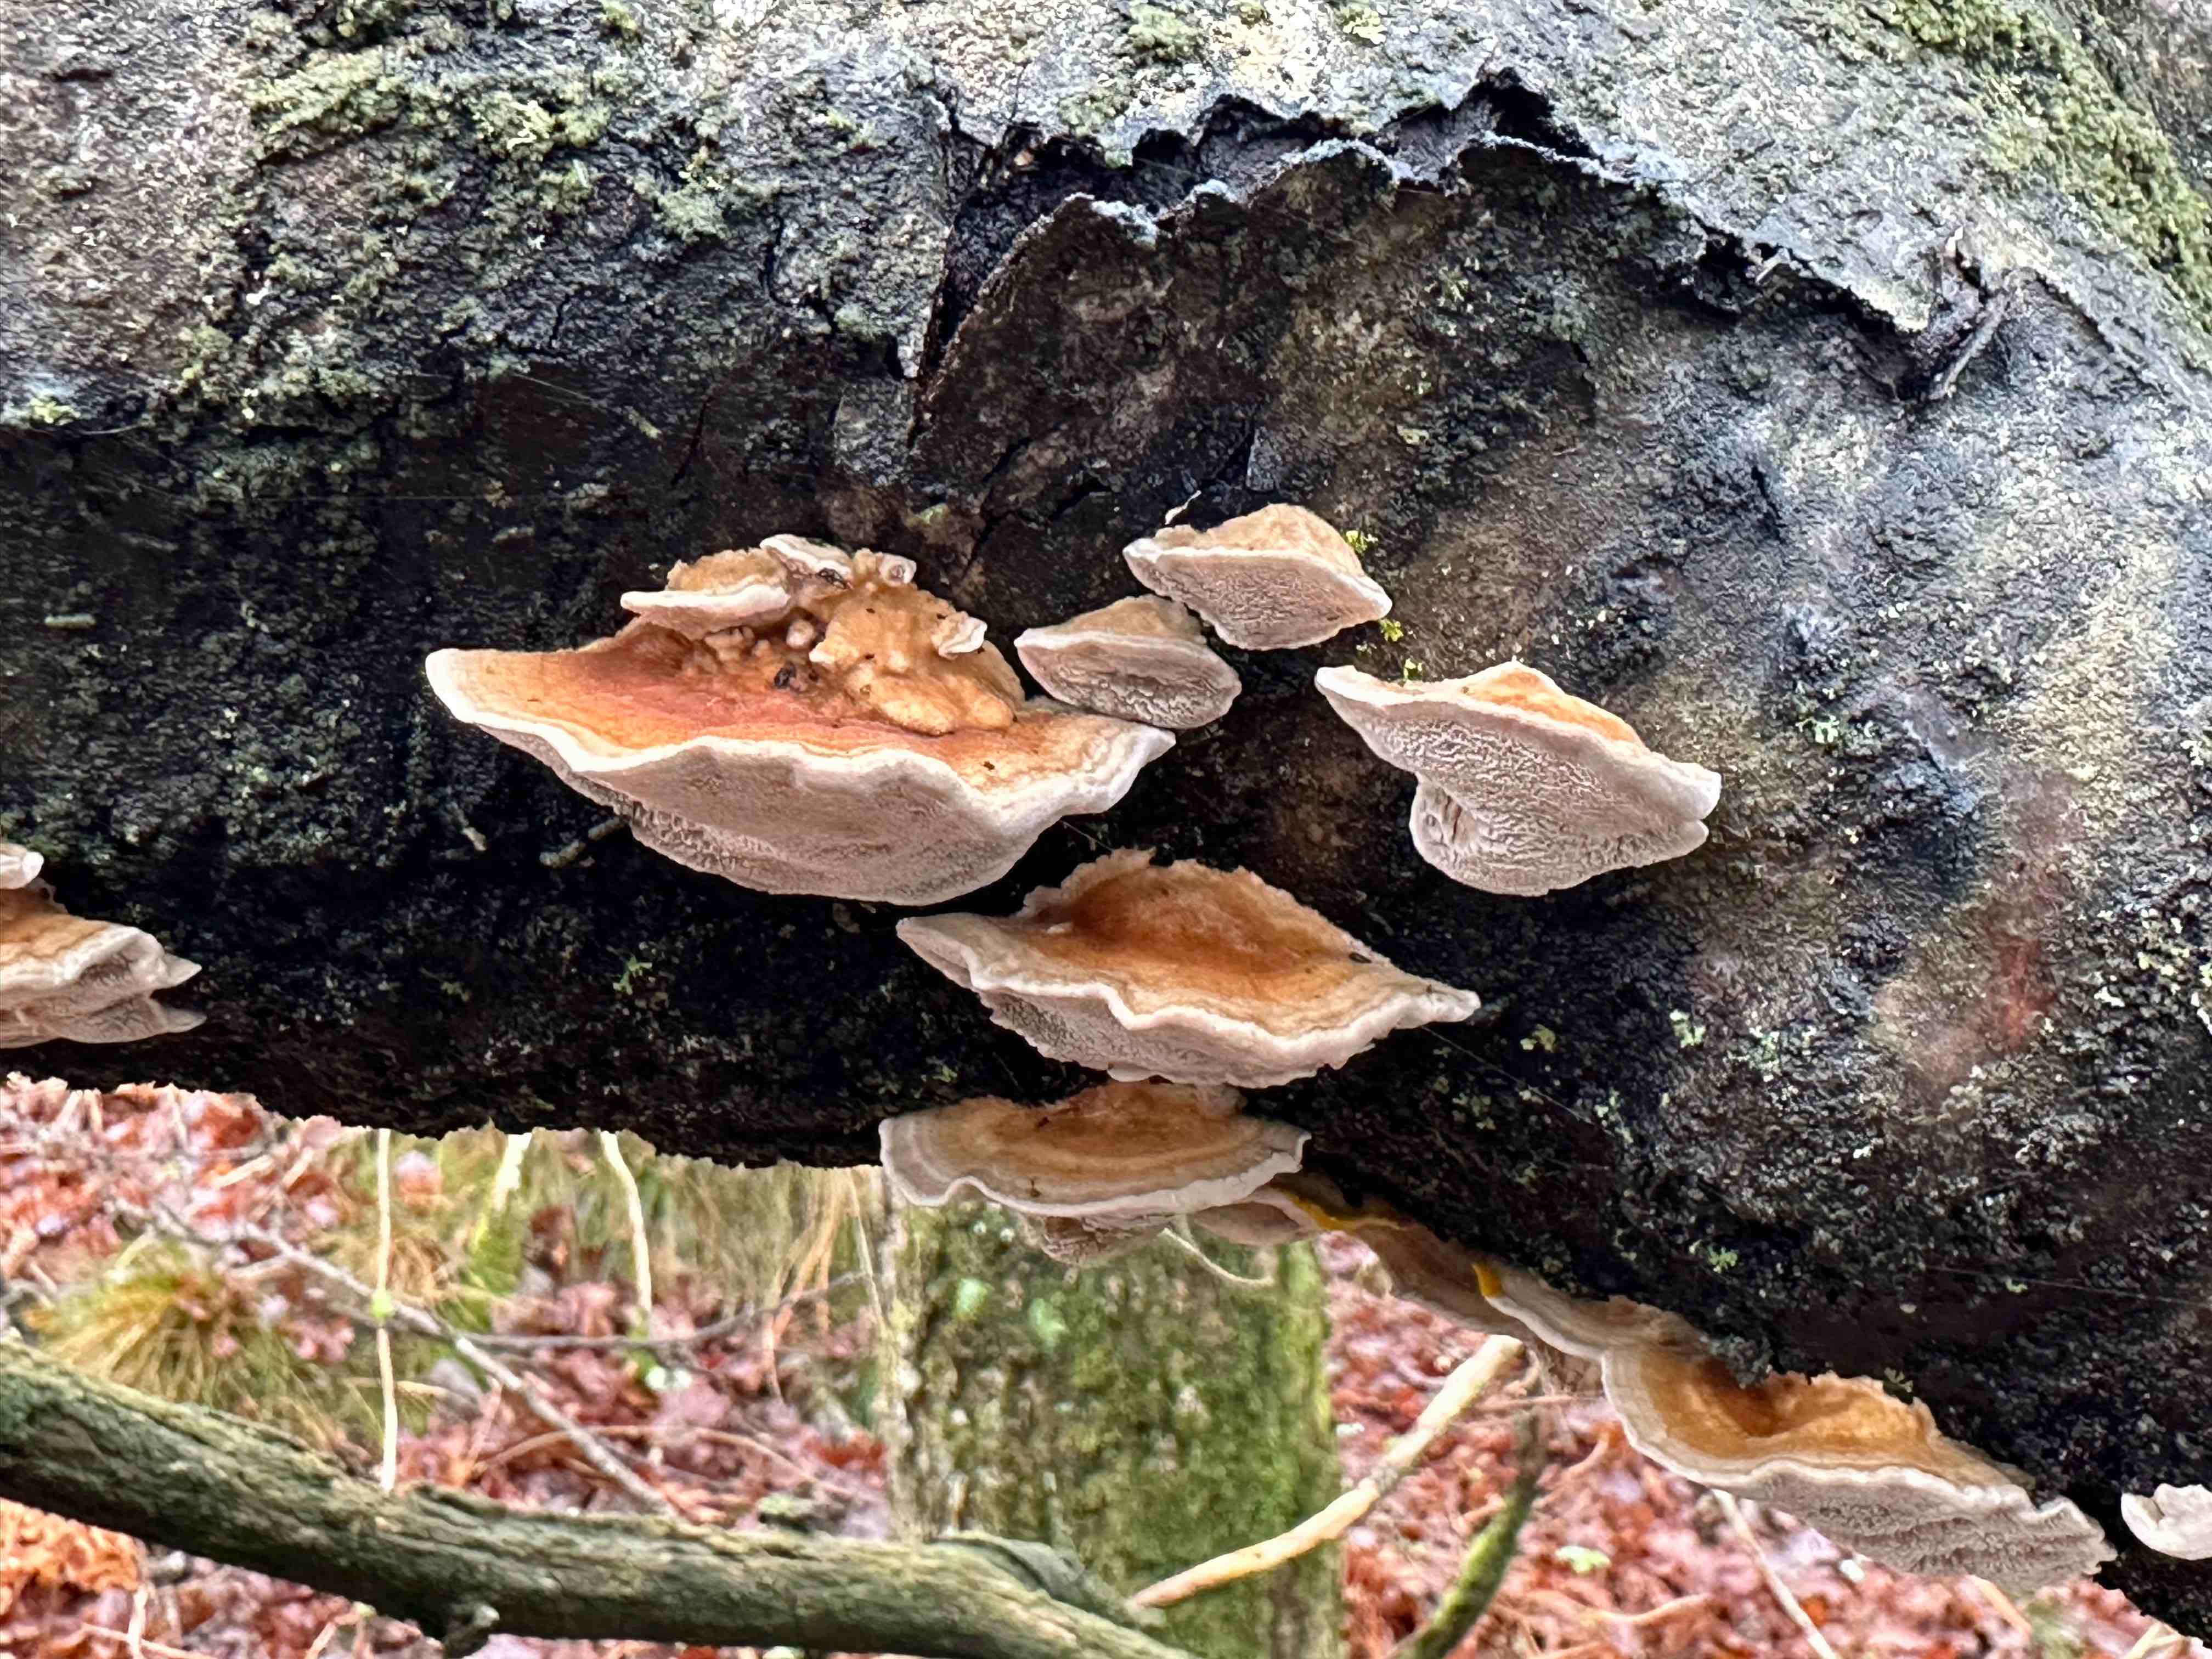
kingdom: Fungi
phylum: Basidiomycota
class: Agaricomycetes
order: Polyporales
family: Polyporaceae
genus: Trametes
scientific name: Trametes ochracea
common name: bæltet læderporesvamp
